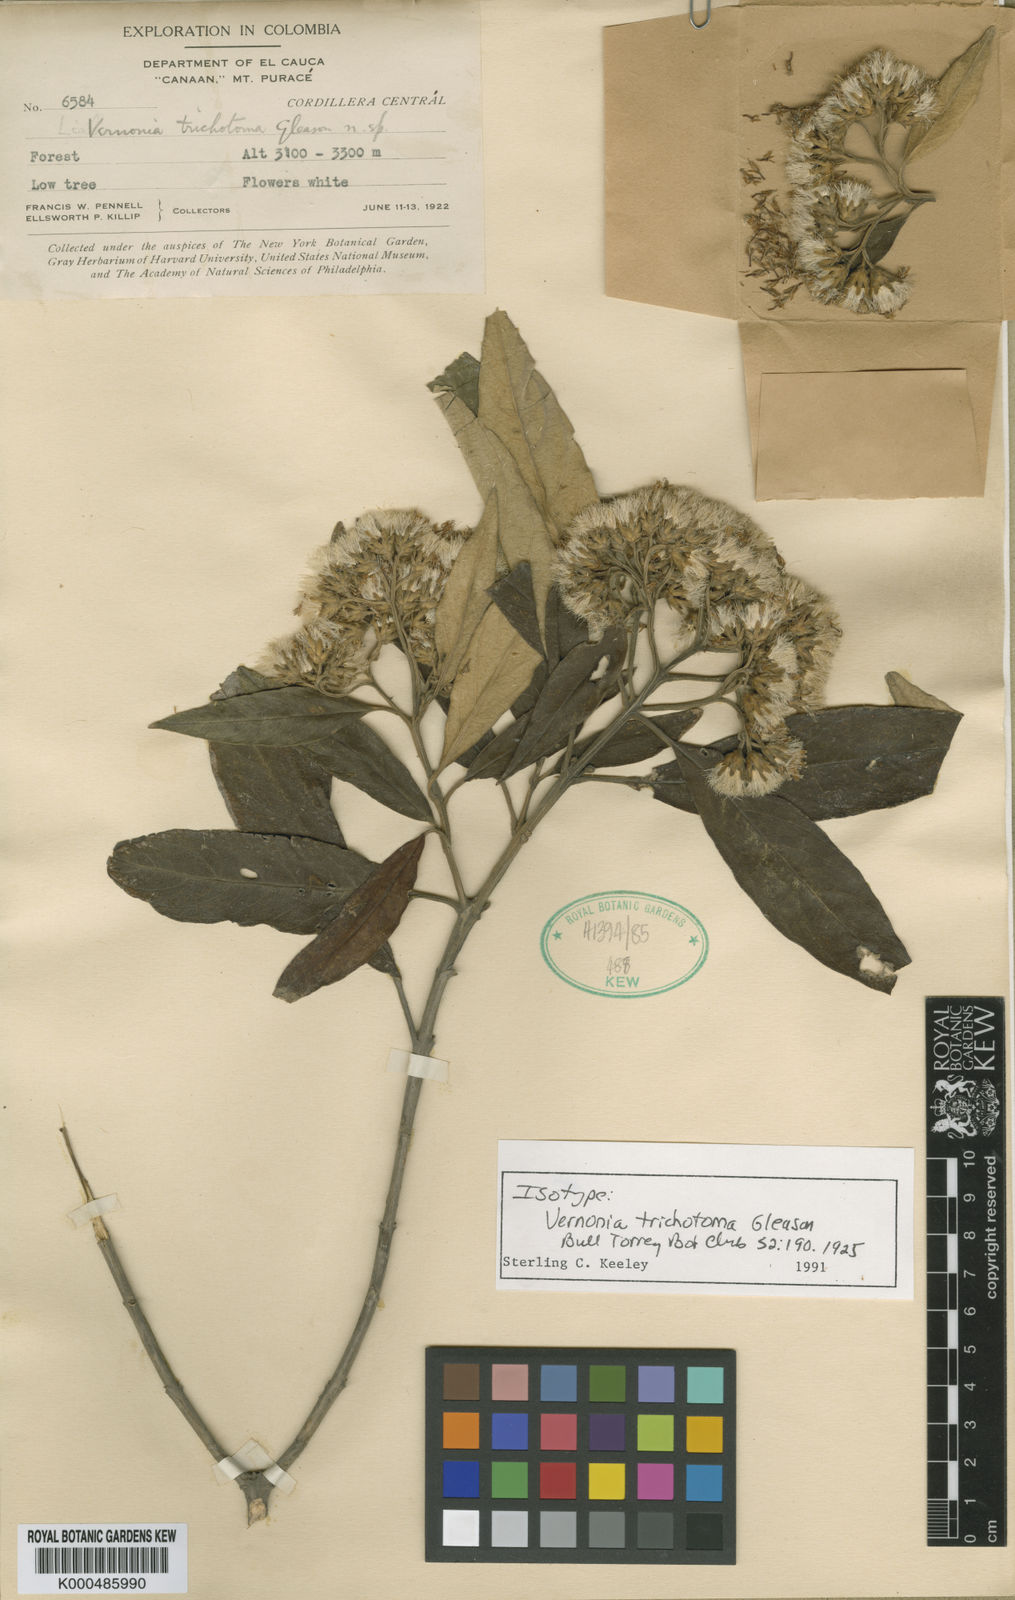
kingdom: Plantae
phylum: Tracheophyta
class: Magnoliopsida
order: Asterales
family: Asteraceae
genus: Joseanthus
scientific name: Joseanthus trichotomus
